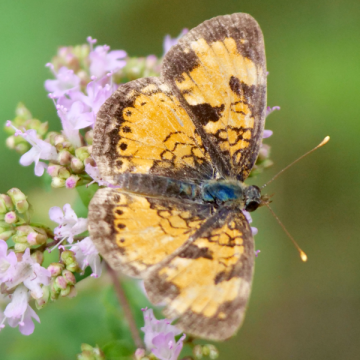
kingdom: Animalia
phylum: Arthropoda
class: Insecta
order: Lepidoptera
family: Nymphalidae
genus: Phyciodes
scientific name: Phyciodes tharos
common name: Northern Crescent
